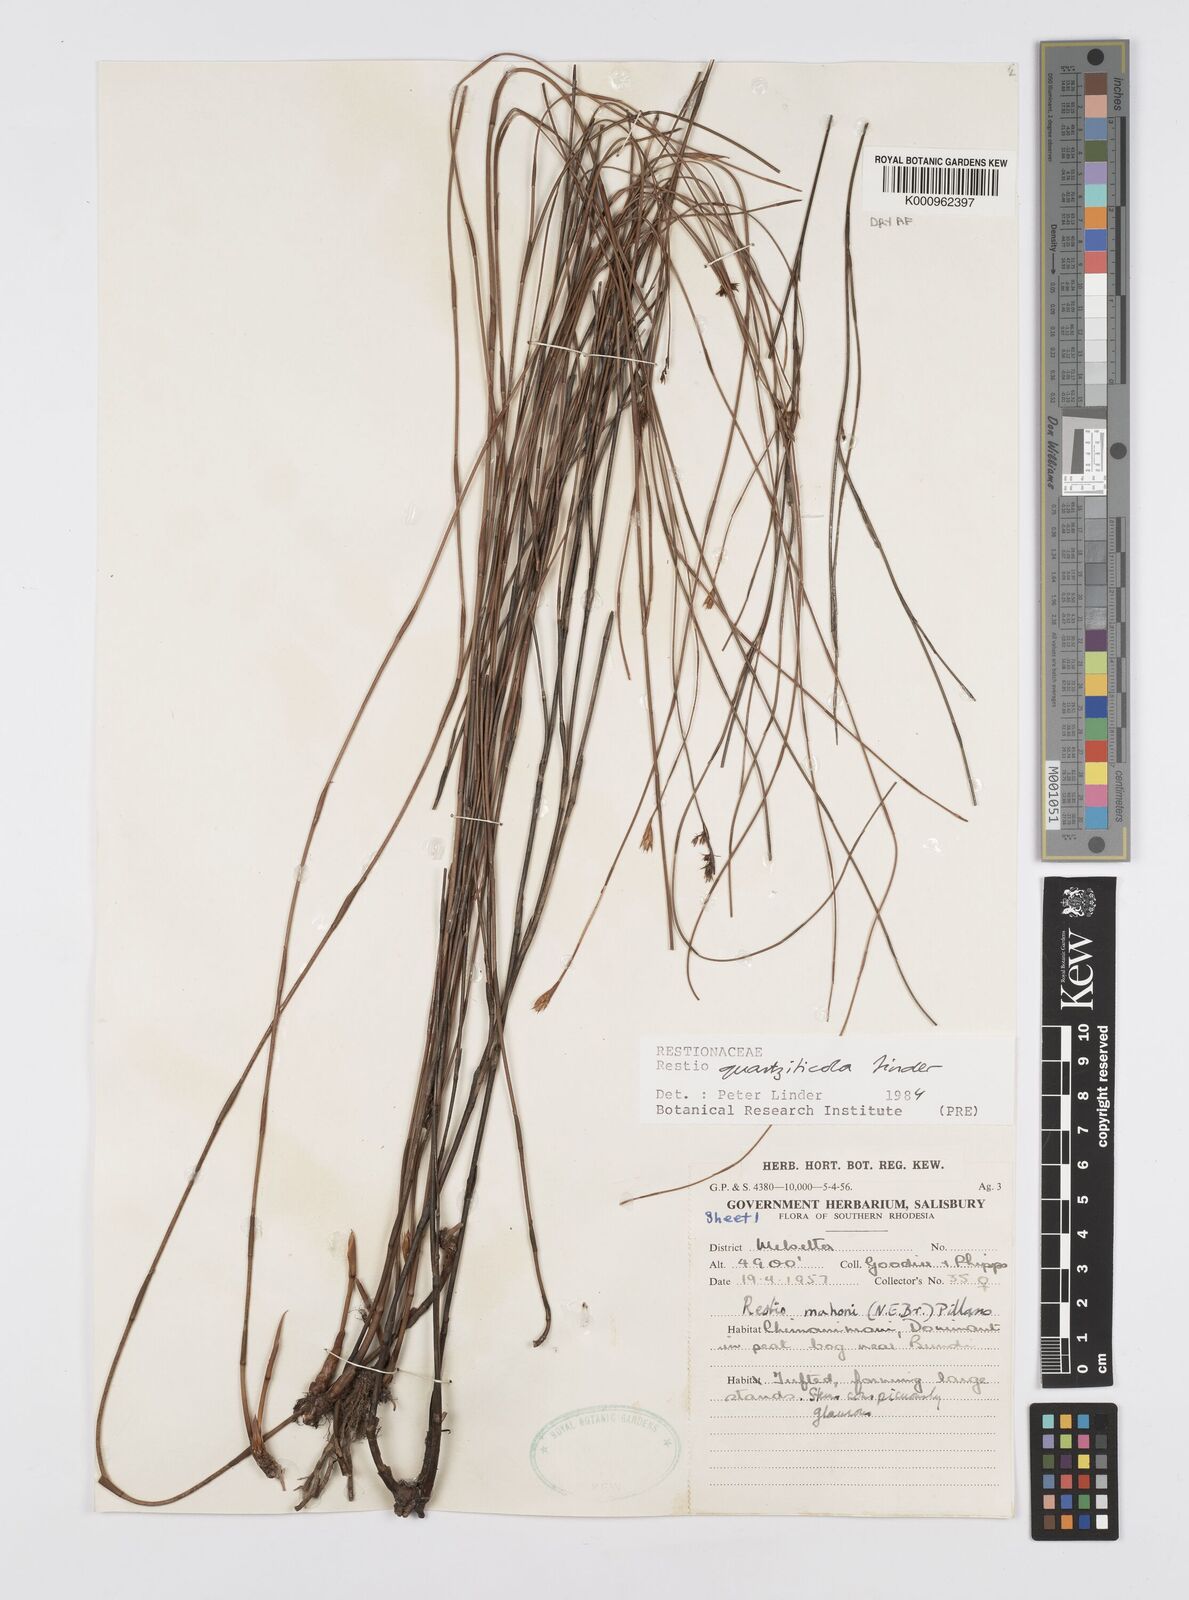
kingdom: Plantae
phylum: Tracheophyta
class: Liliopsida
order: Poales
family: Restionaceae
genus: Platycaulos
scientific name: Platycaulos quartziticola
